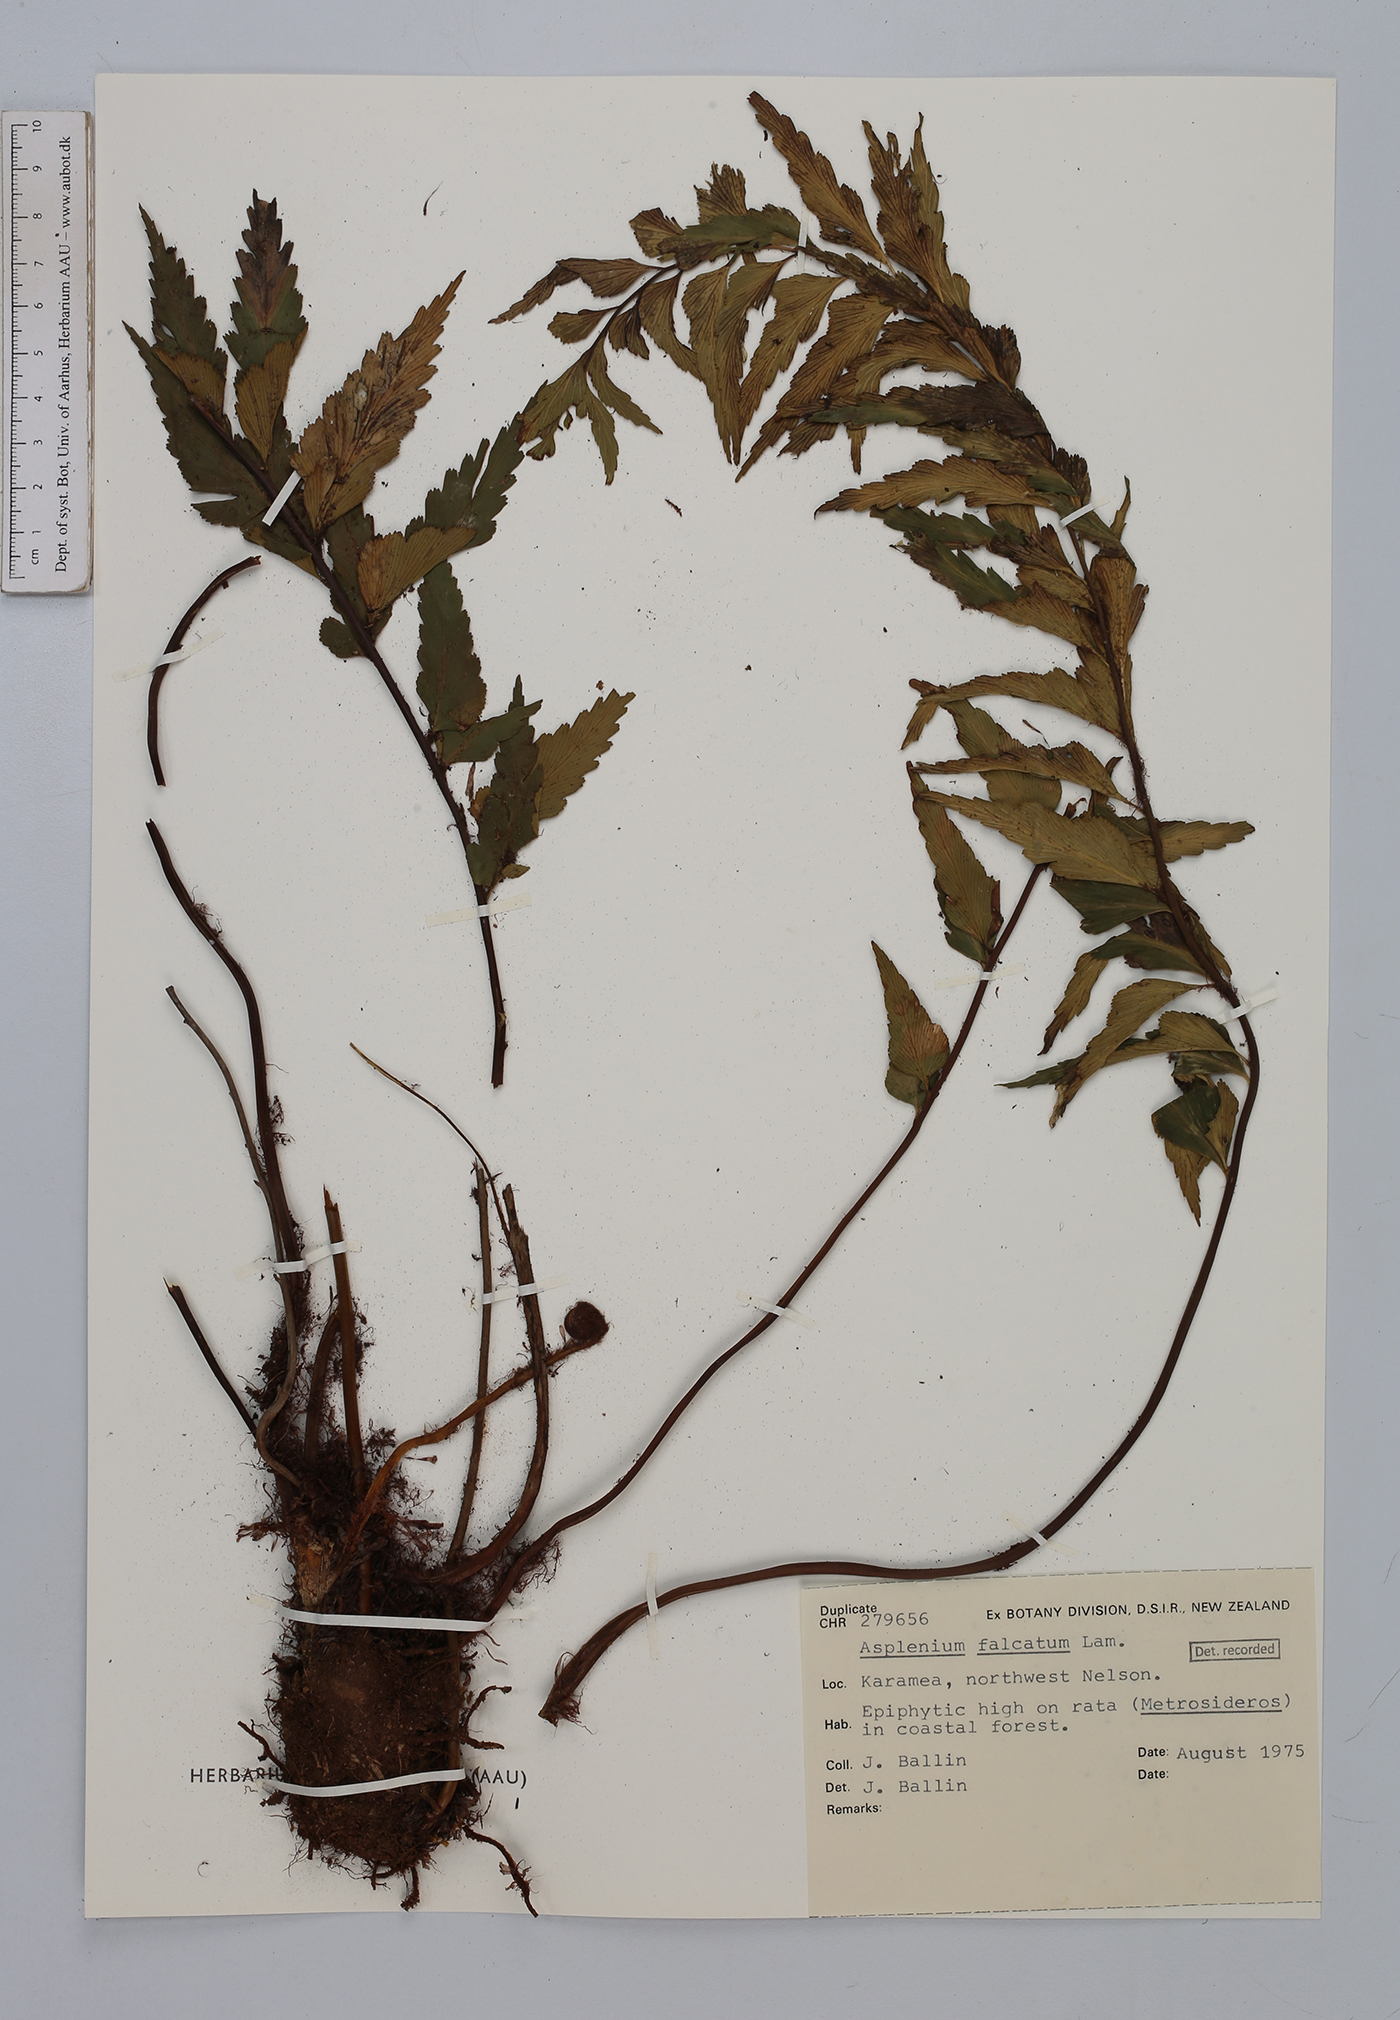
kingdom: Plantae
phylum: Tracheophyta
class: Polypodiopsida
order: Polypodiales
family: Aspleniaceae
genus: Asplenium
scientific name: Asplenium falcatum
